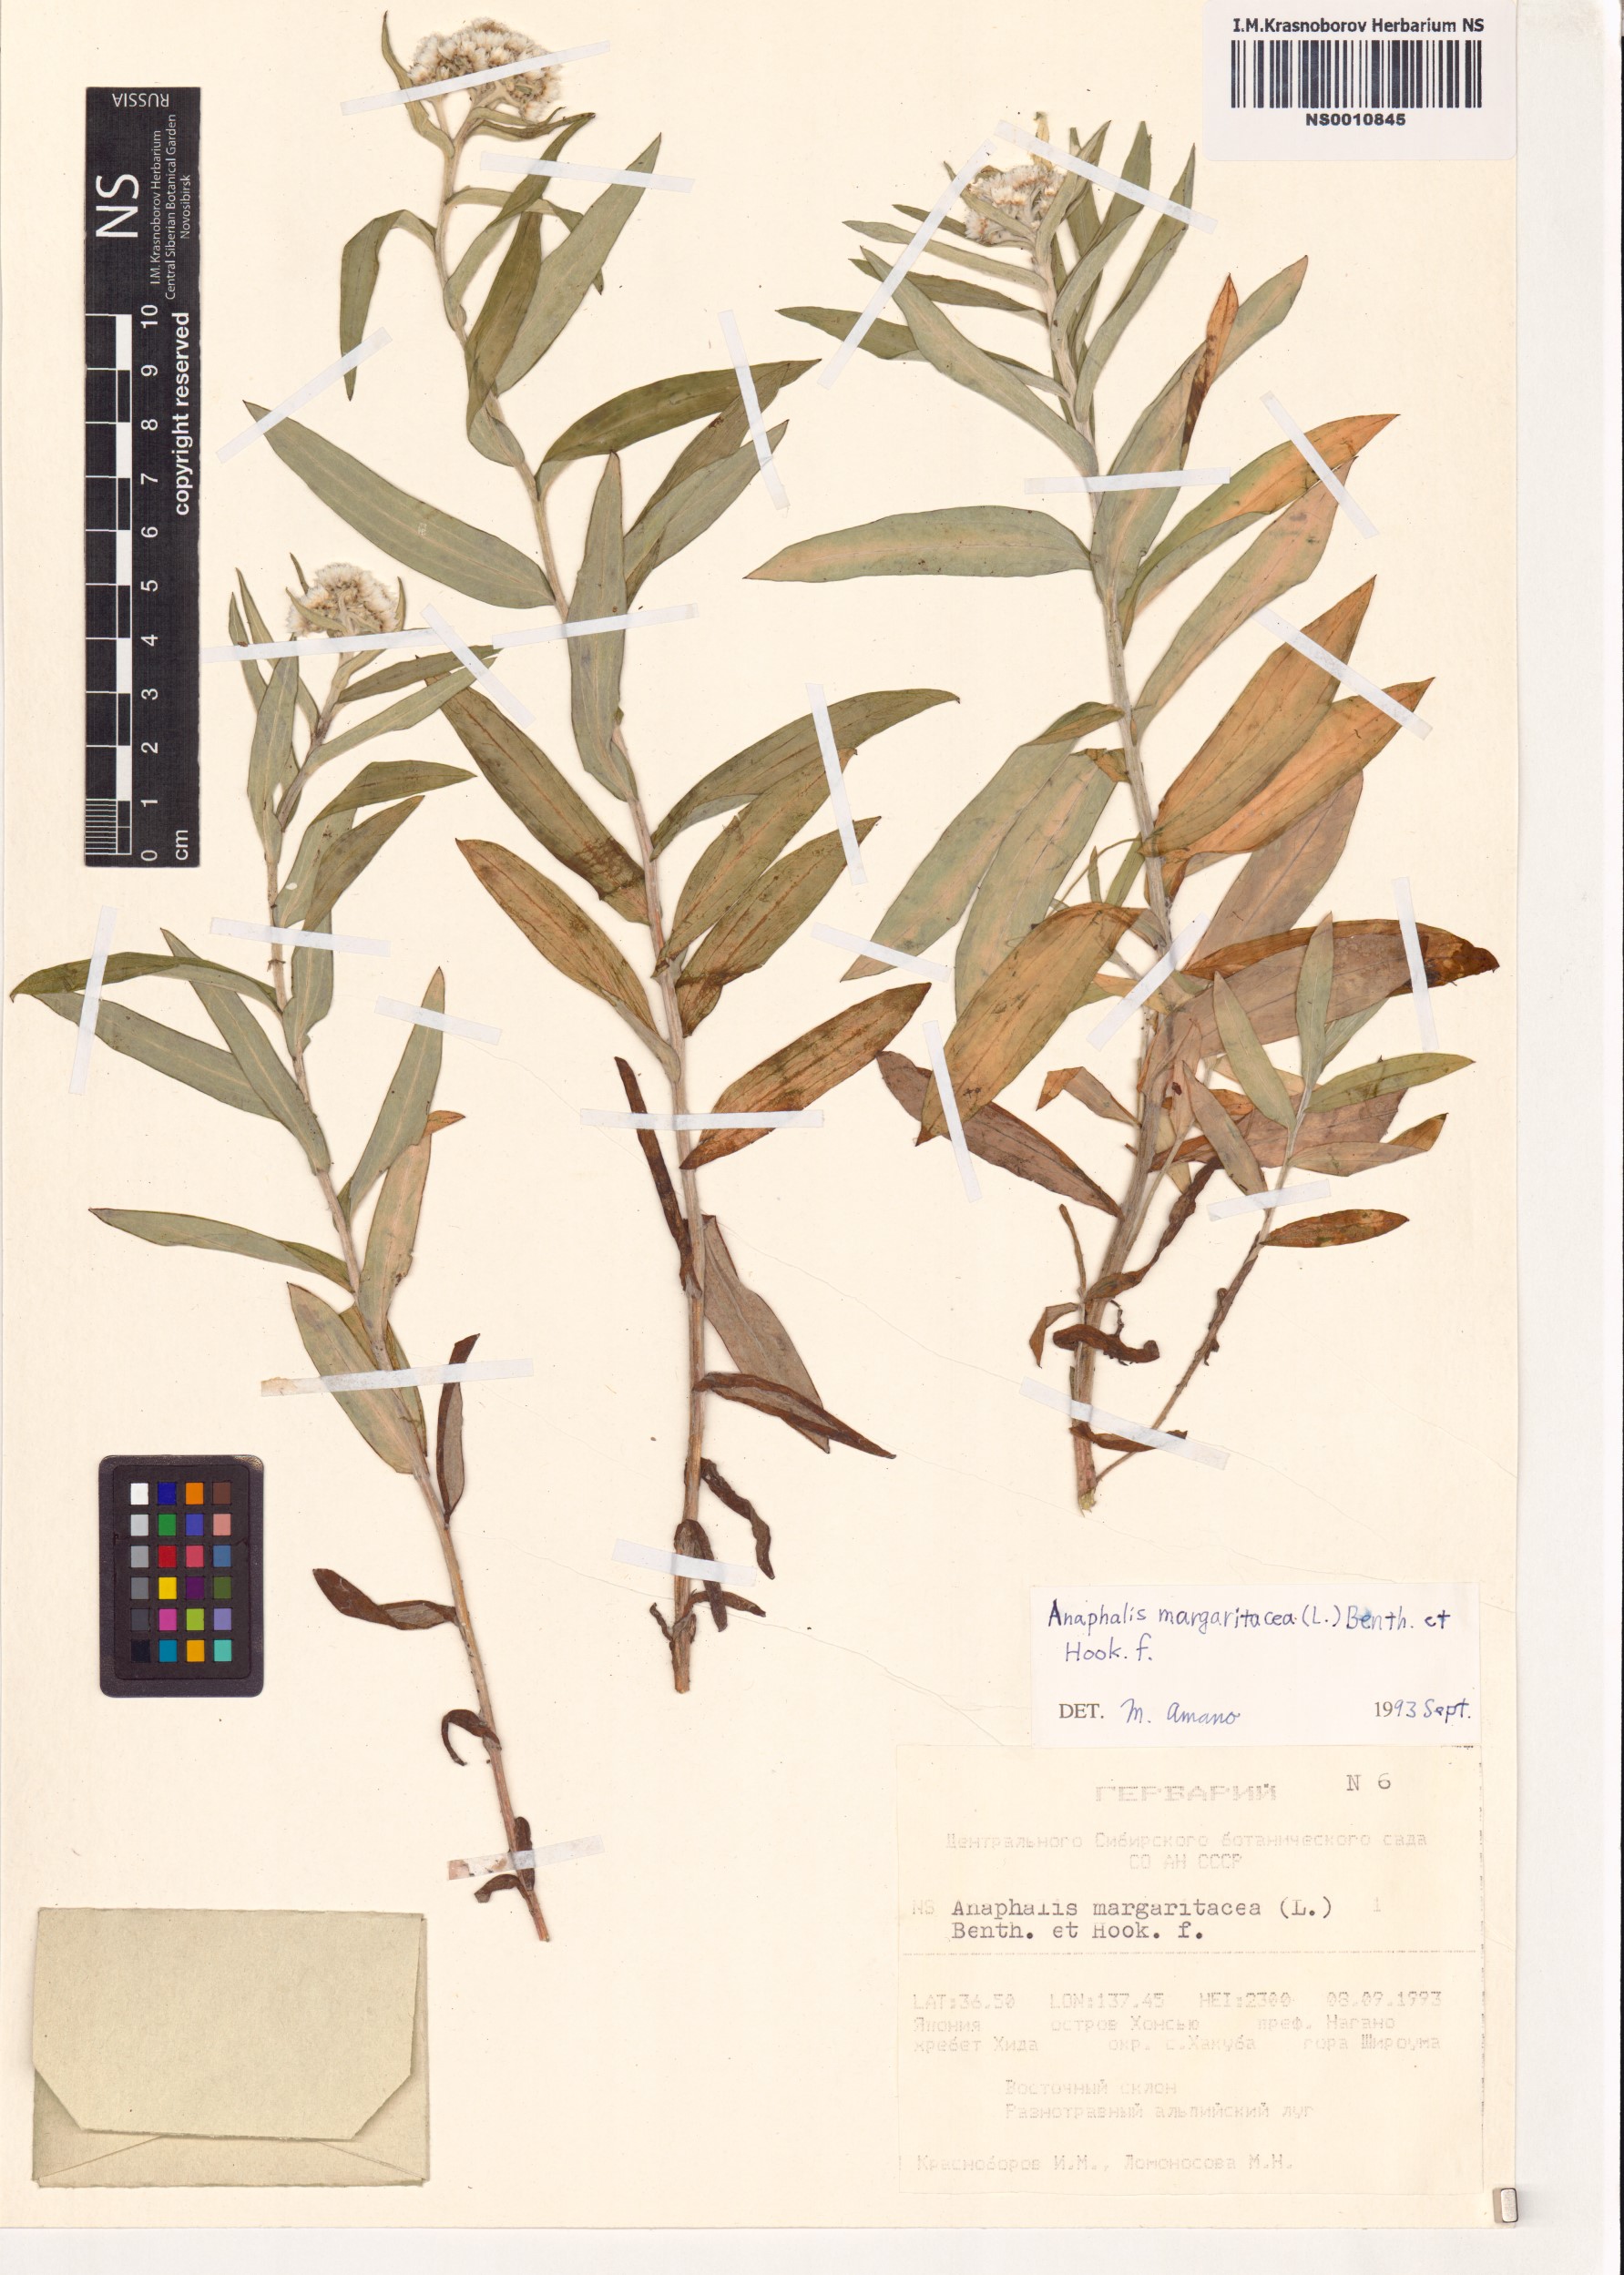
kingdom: Plantae
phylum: Tracheophyta
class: Magnoliopsida
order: Asterales
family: Asteraceae
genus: Anaphalis
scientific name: Anaphalis margaritacea
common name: Pearly everlasting
